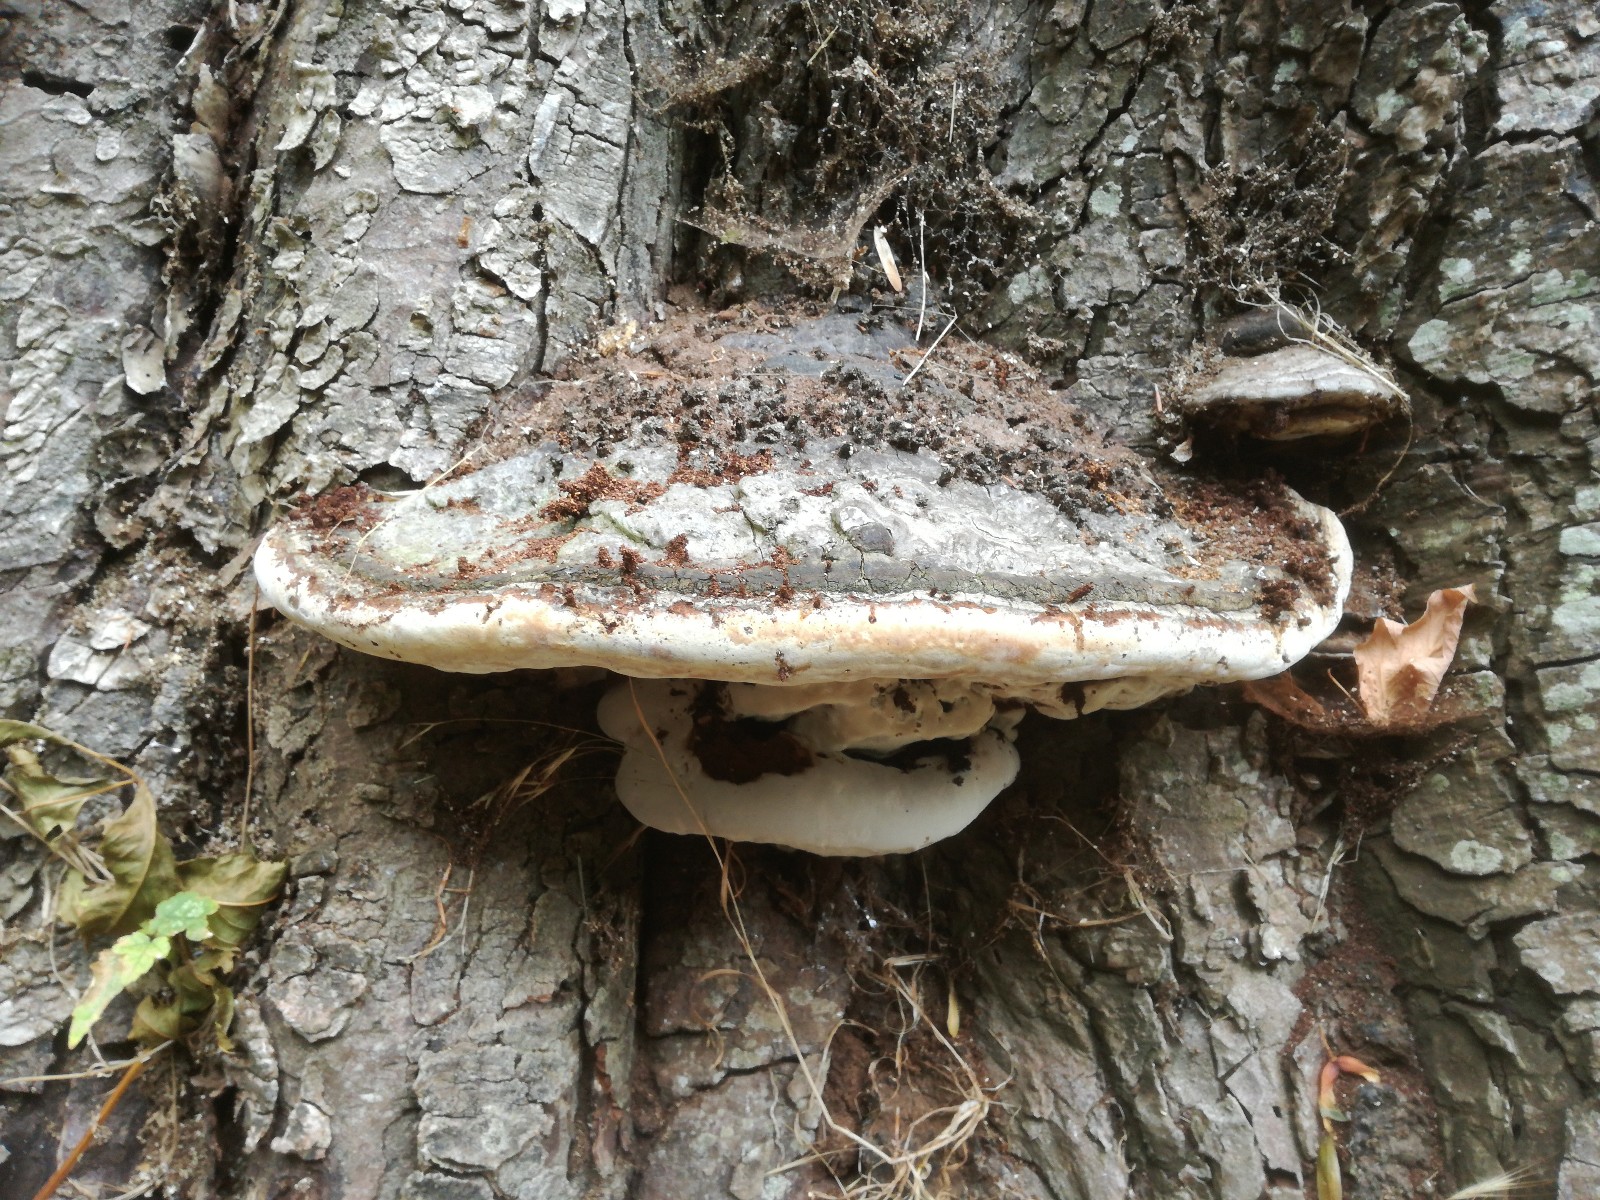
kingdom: Fungi
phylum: Basidiomycota
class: Agaricomycetes
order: Polyporales
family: Polyporaceae
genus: Ganoderma
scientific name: Ganoderma adspersum
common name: grov lakporesvamp
